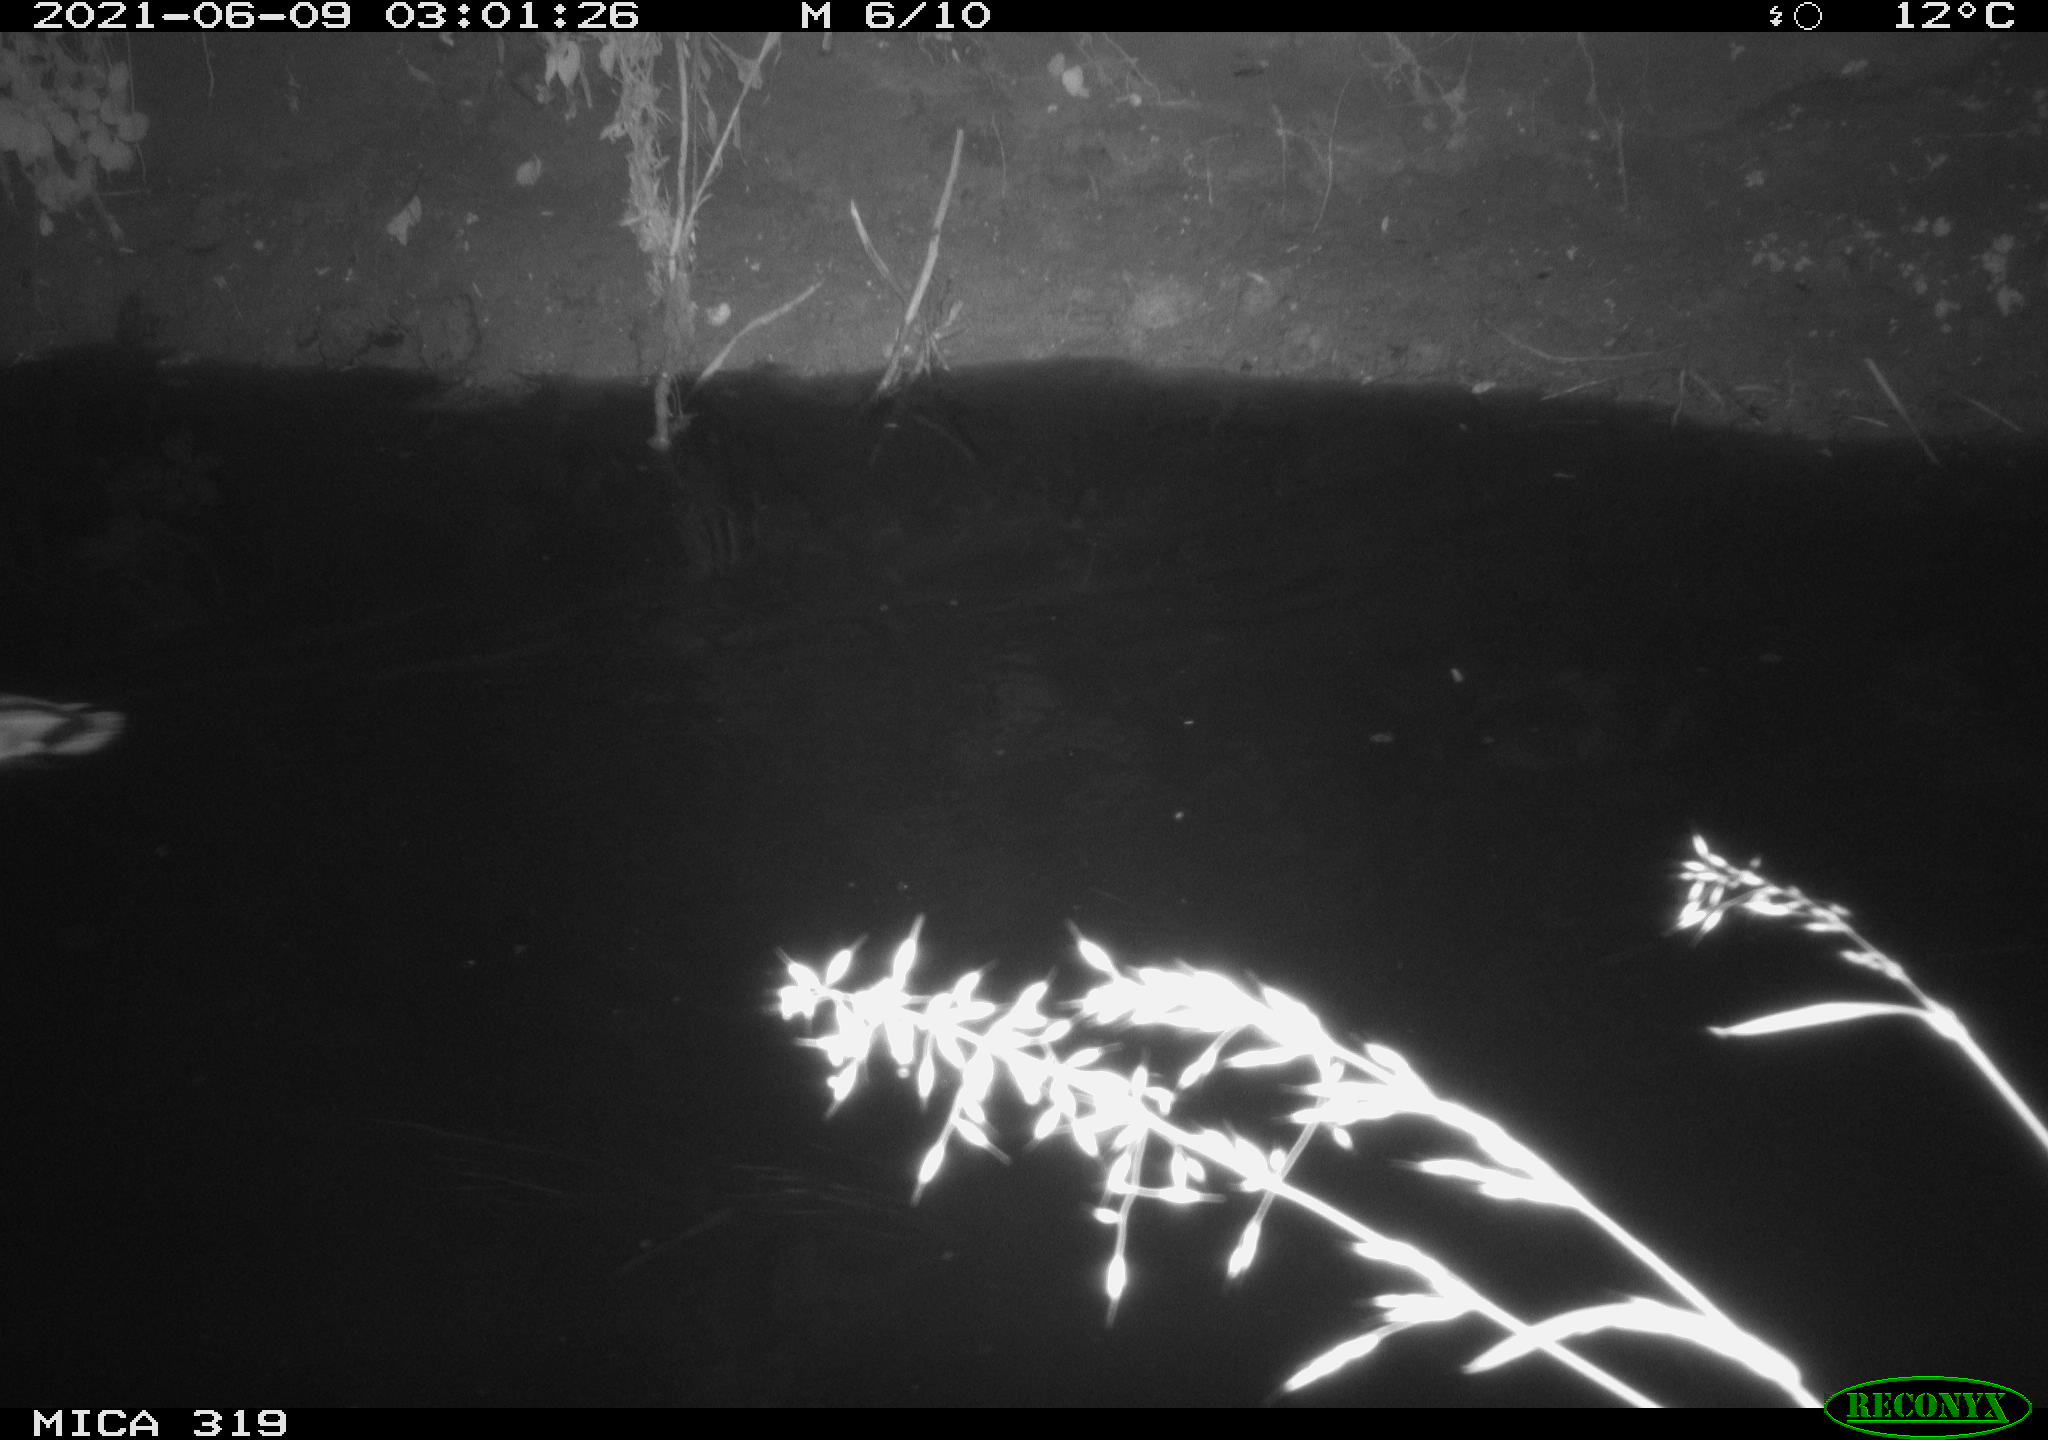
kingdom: Animalia
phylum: Chordata
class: Aves
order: Anseriformes
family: Anatidae
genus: Anas
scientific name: Anas platyrhynchos
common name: Mallard
